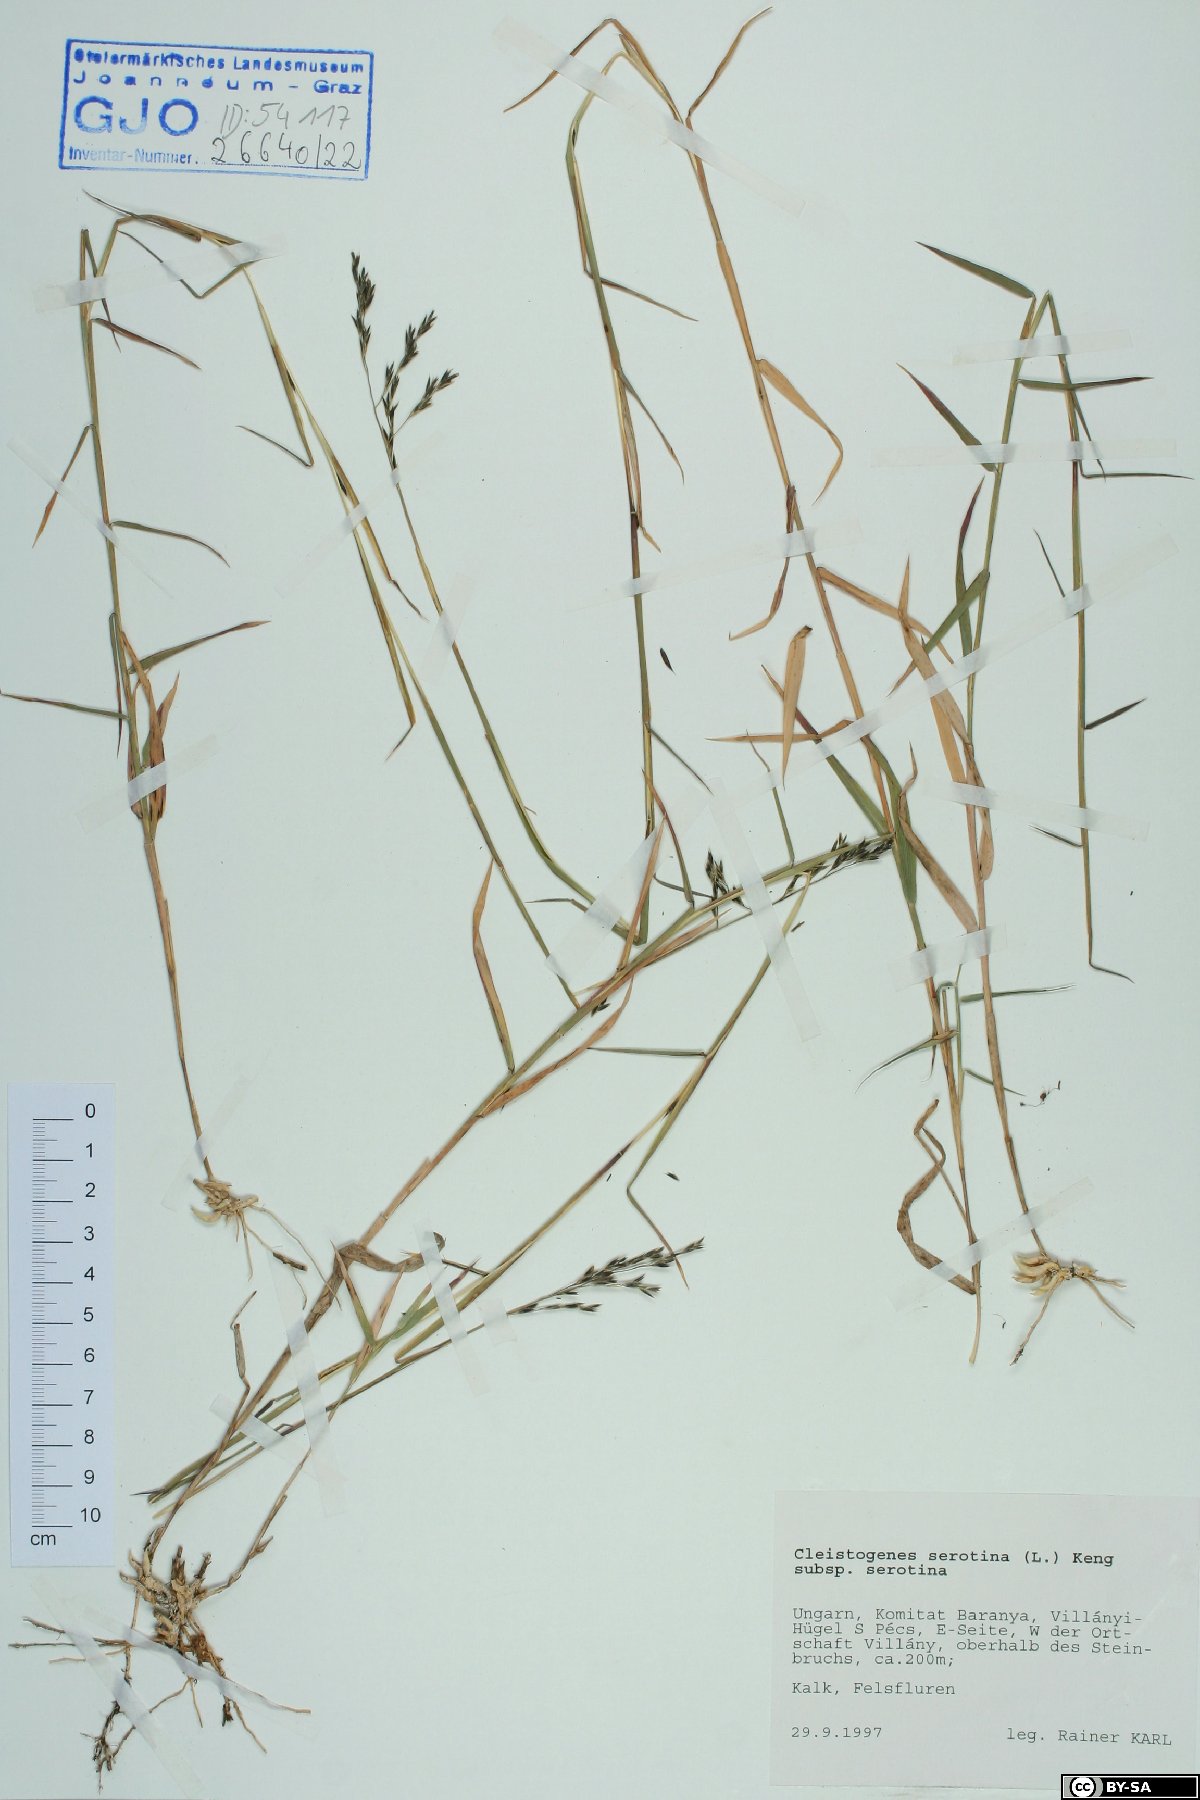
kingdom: Plantae
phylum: Tracheophyta
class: Liliopsida
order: Poales
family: Poaceae
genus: Cleistogenes
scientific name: Cleistogenes serotina
